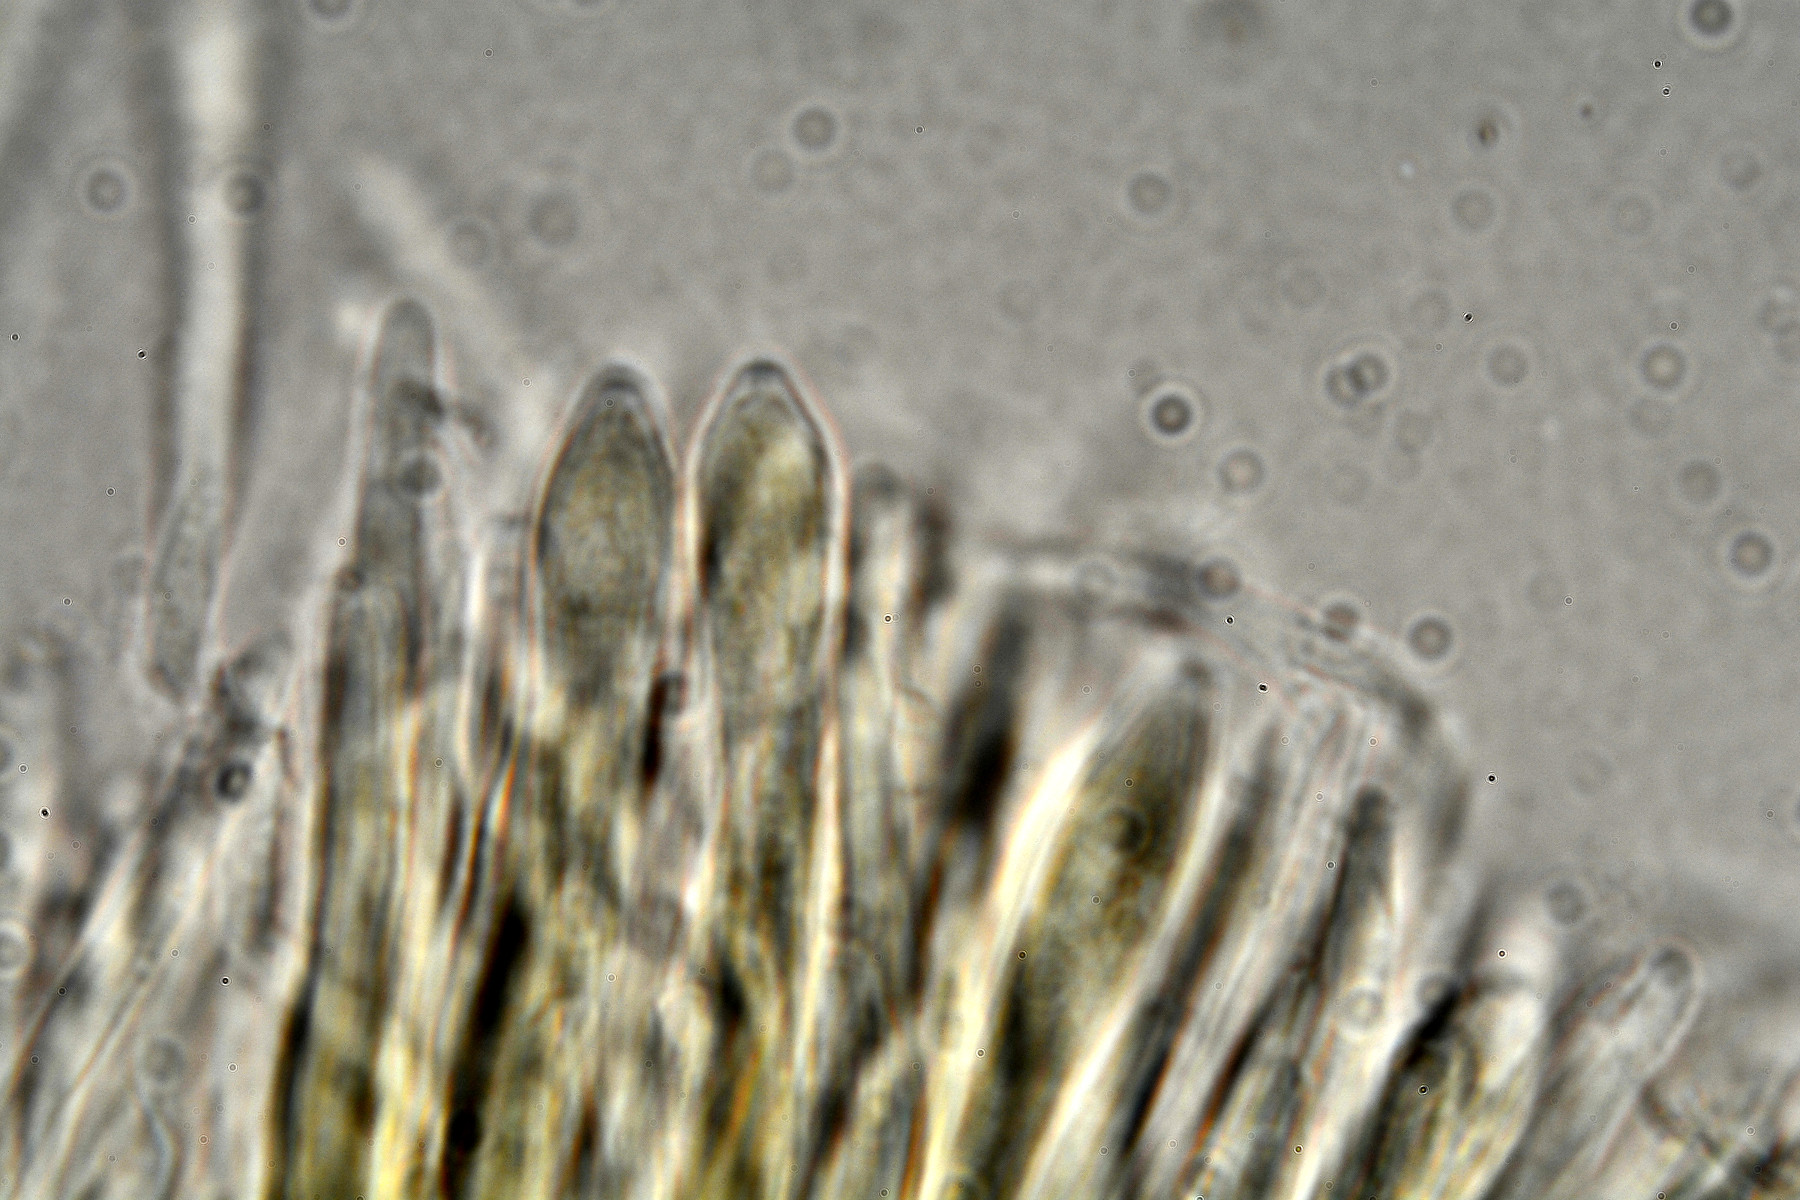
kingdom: Fungi
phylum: Ascomycota
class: Leotiomycetes
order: Helotiales
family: Mollisiaceae
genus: Tapesia
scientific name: Tapesia fusca
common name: tæppe-gråskive
